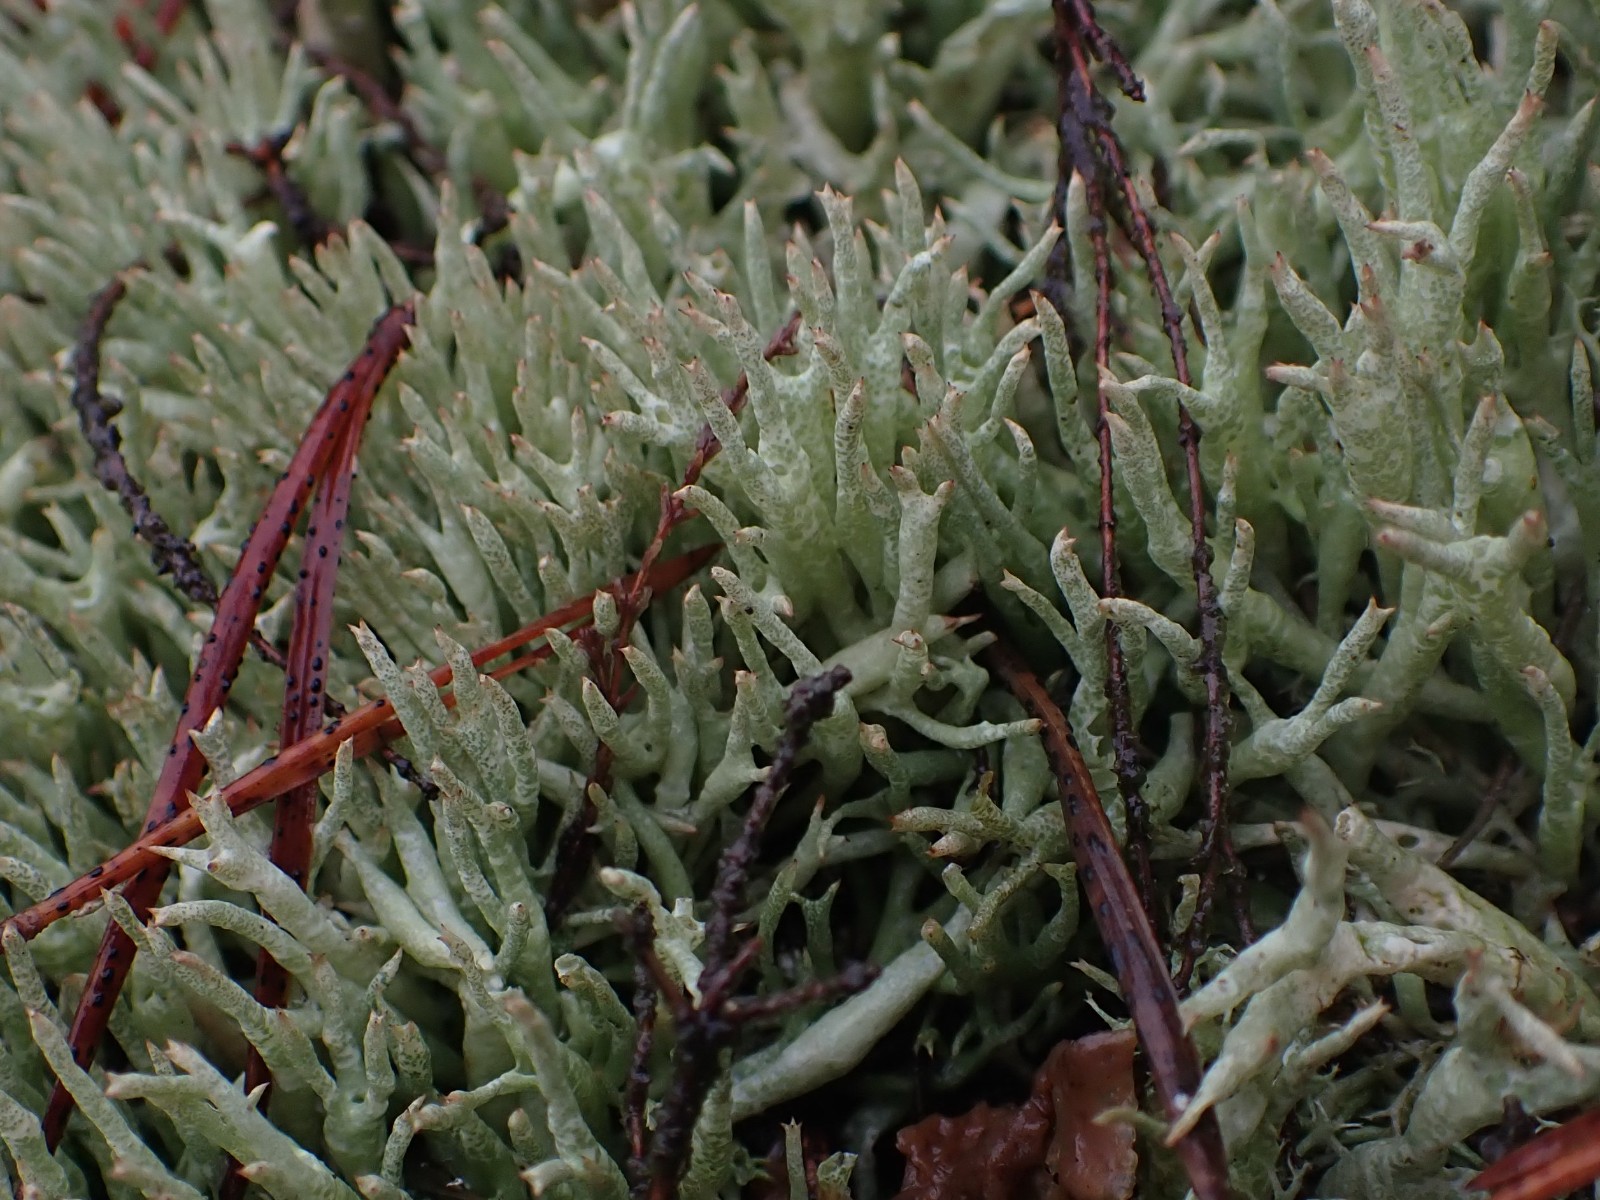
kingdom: Fungi
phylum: Ascomycota
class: Lecanoromycetes
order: Lecanorales
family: Cladoniaceae
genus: Cladonia
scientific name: Cladonia uncialis
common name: pigget bægerlav
